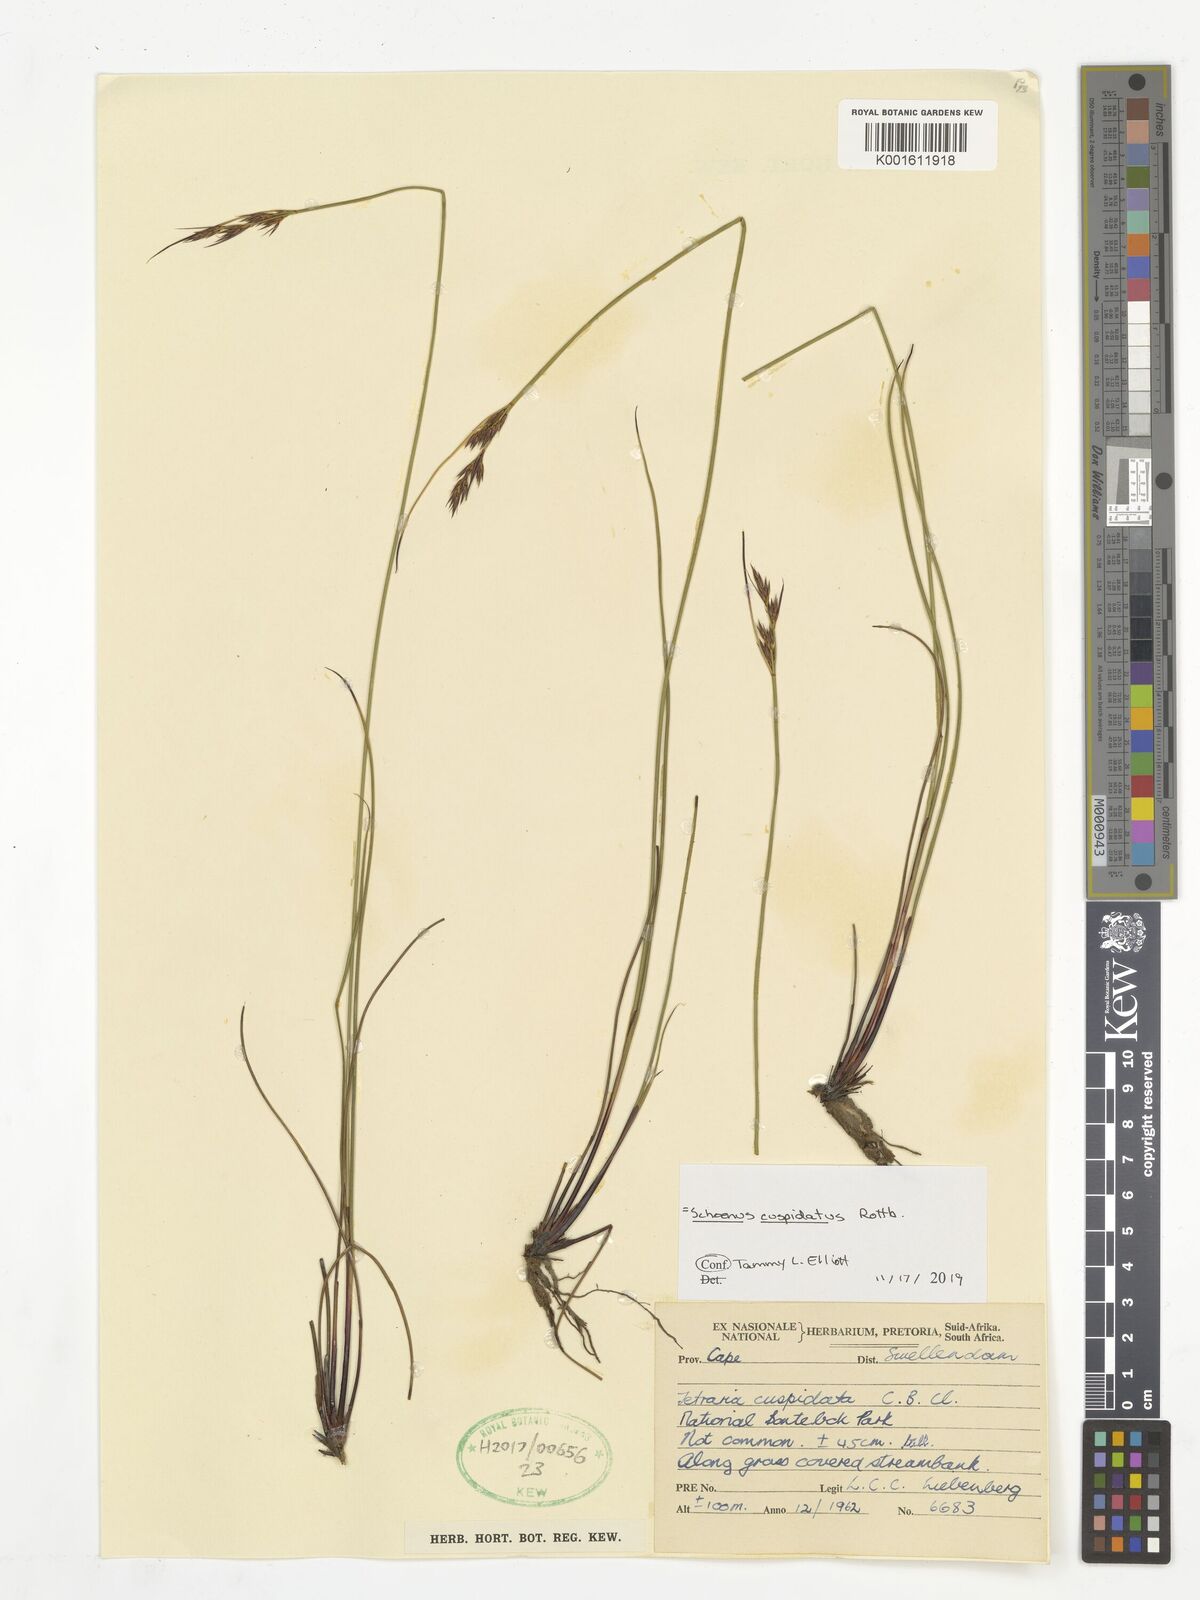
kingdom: Plantae
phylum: Tracheophyta
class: Liliopsida
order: Poales
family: Cyperaceae
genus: Schoenus
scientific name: Schoenus cuspidatus
